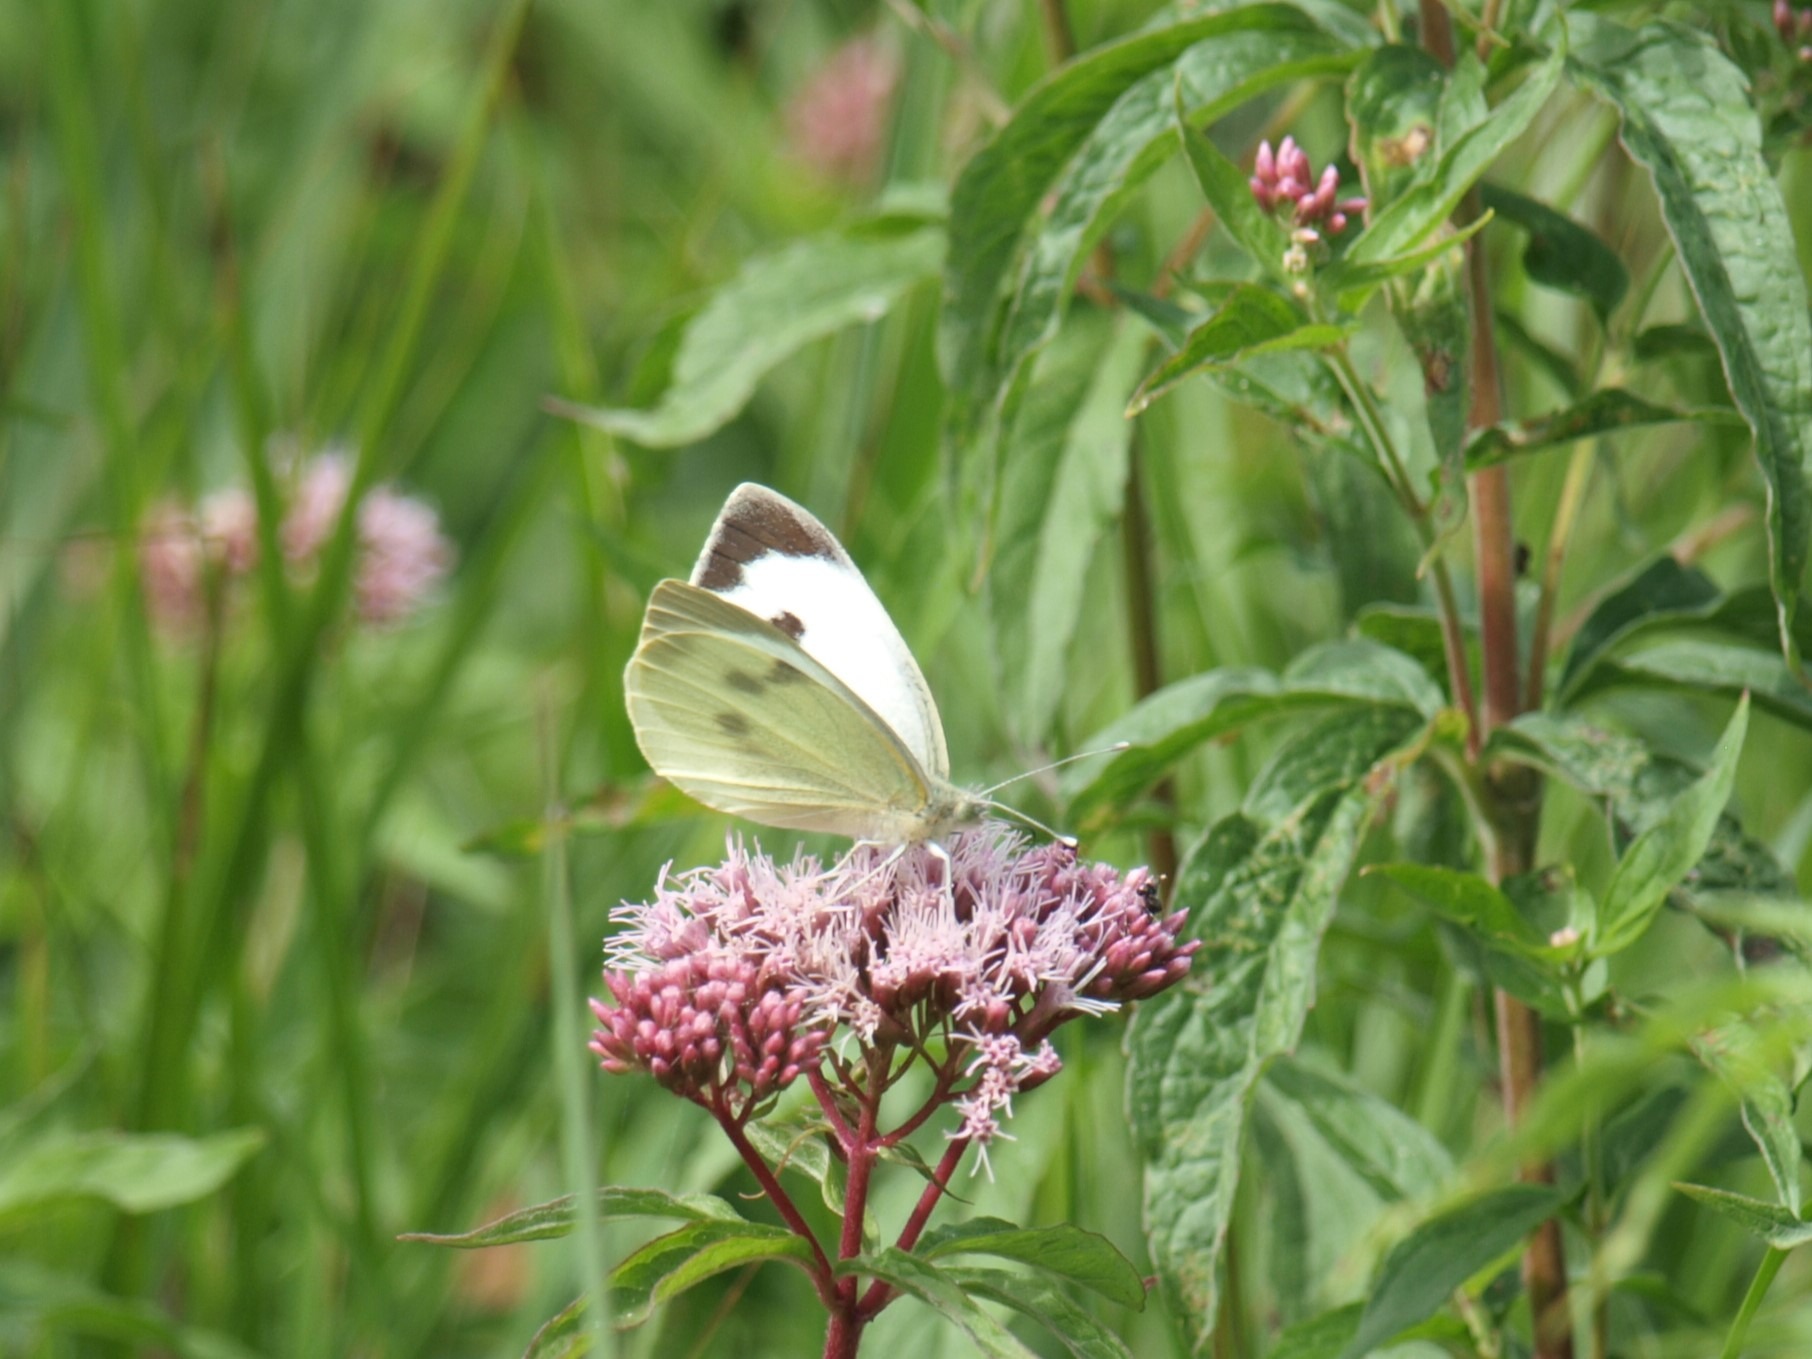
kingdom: Animalia
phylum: Arthropoda
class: Insecta
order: Lepidoptera
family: Pieridae
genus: Pieris
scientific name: Pieris brassicae
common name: Stor kålsommerfugl
